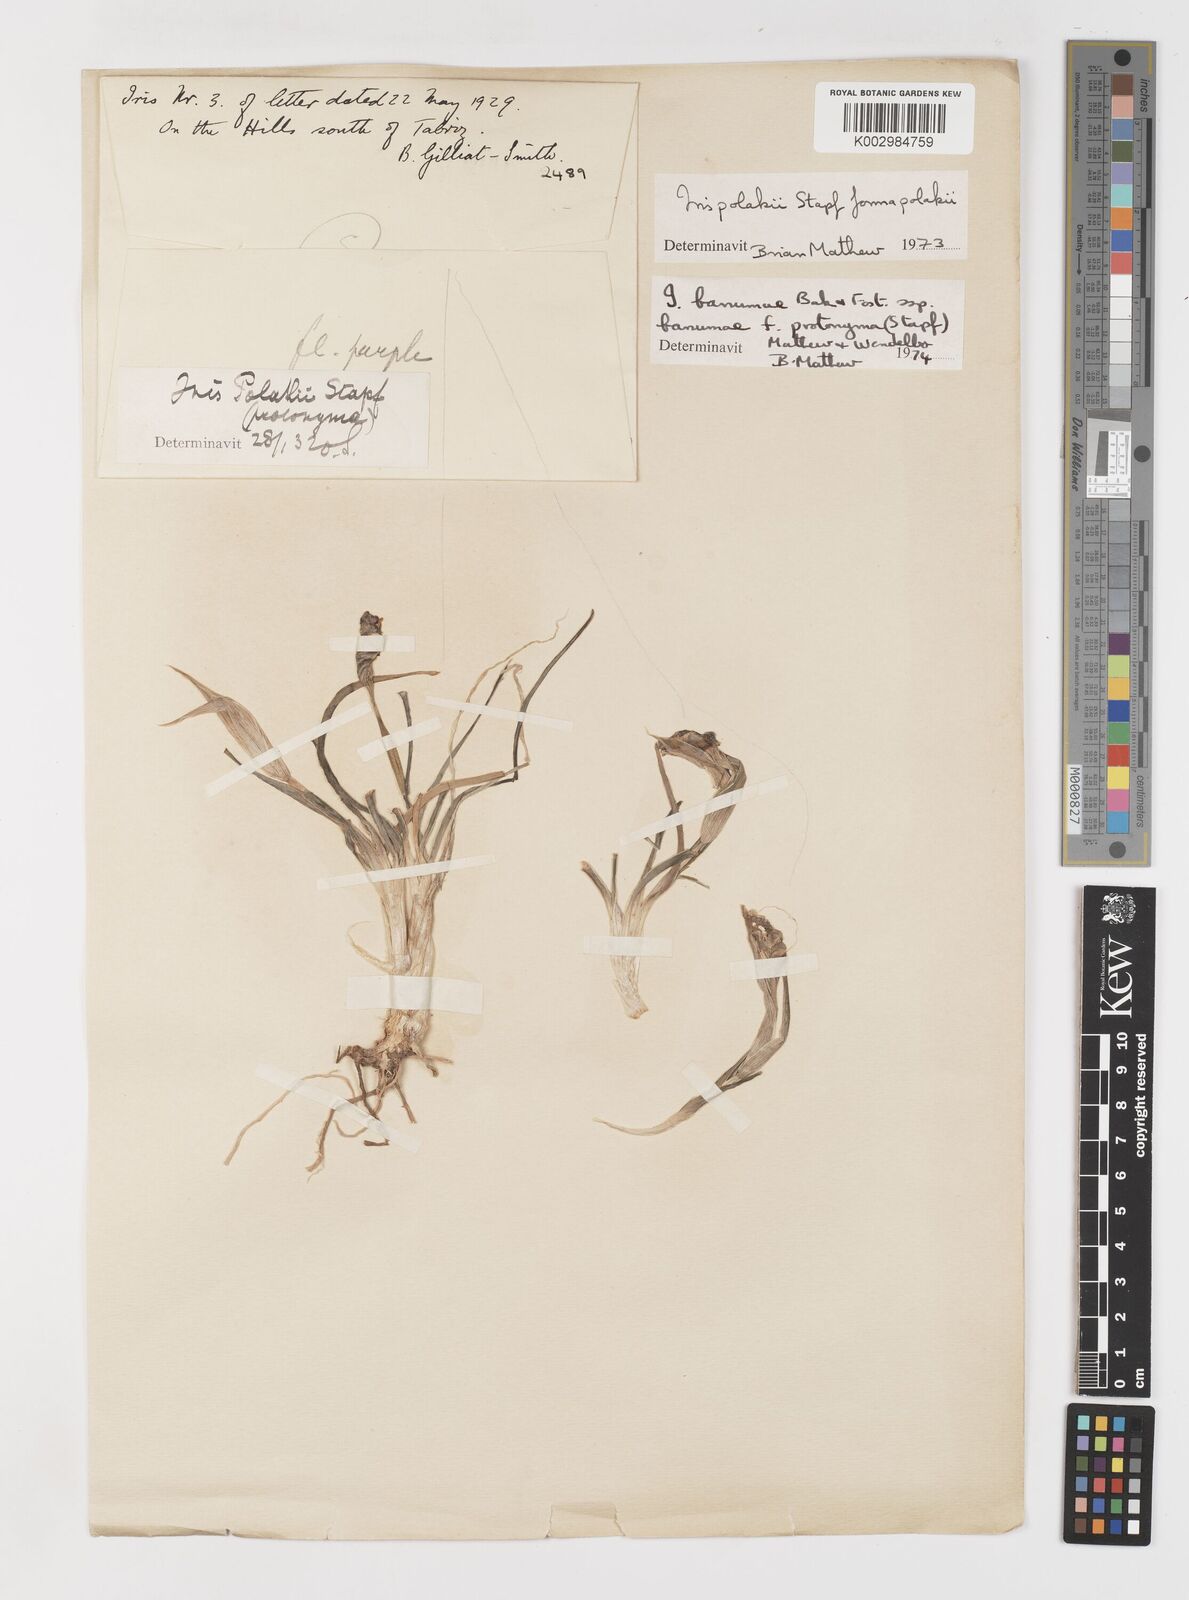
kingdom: Plantae
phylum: Tracheophyta
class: Liliopsida
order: Asparagales
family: Iridaceae
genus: Iris
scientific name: Iris polakii
